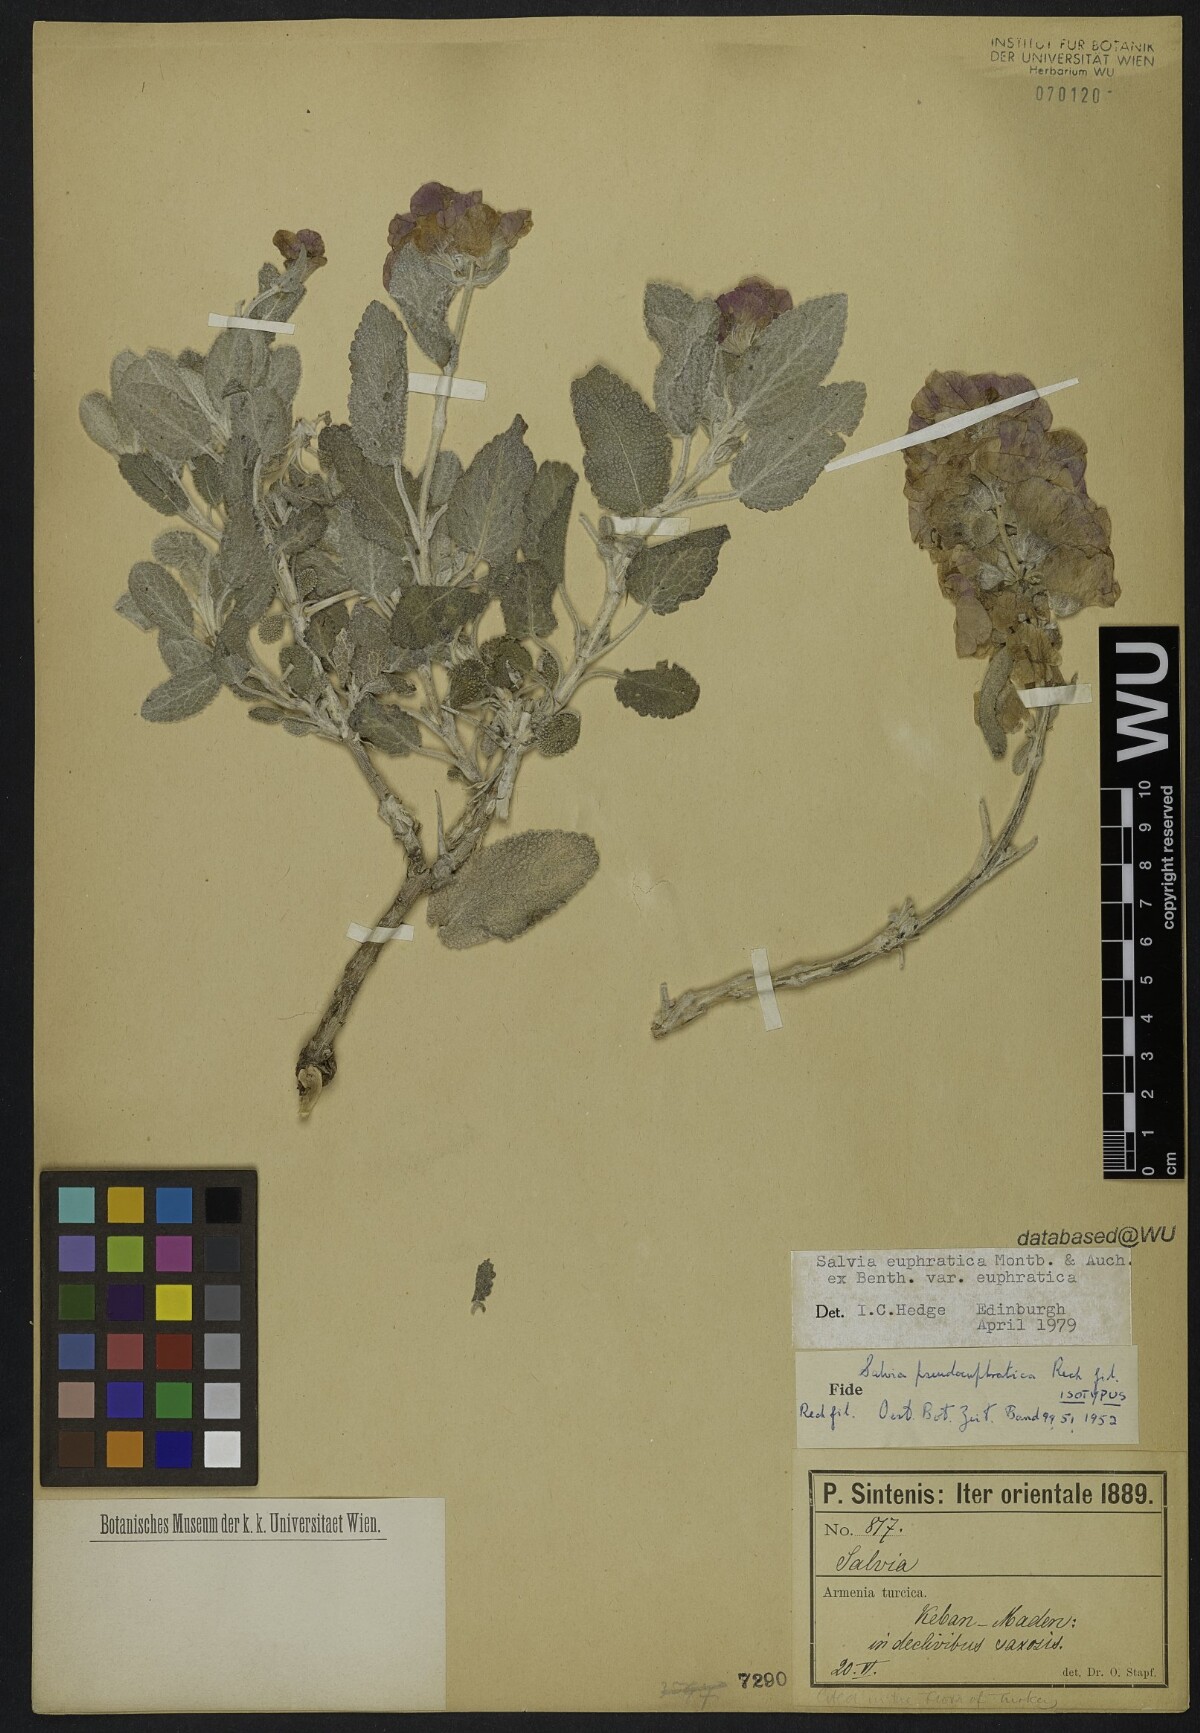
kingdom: Plantae
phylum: Tracheophyta
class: Magnoliopsida
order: Lamiales
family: Lamiaceae
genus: Salvia
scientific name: Salvia pseudeuphratica
